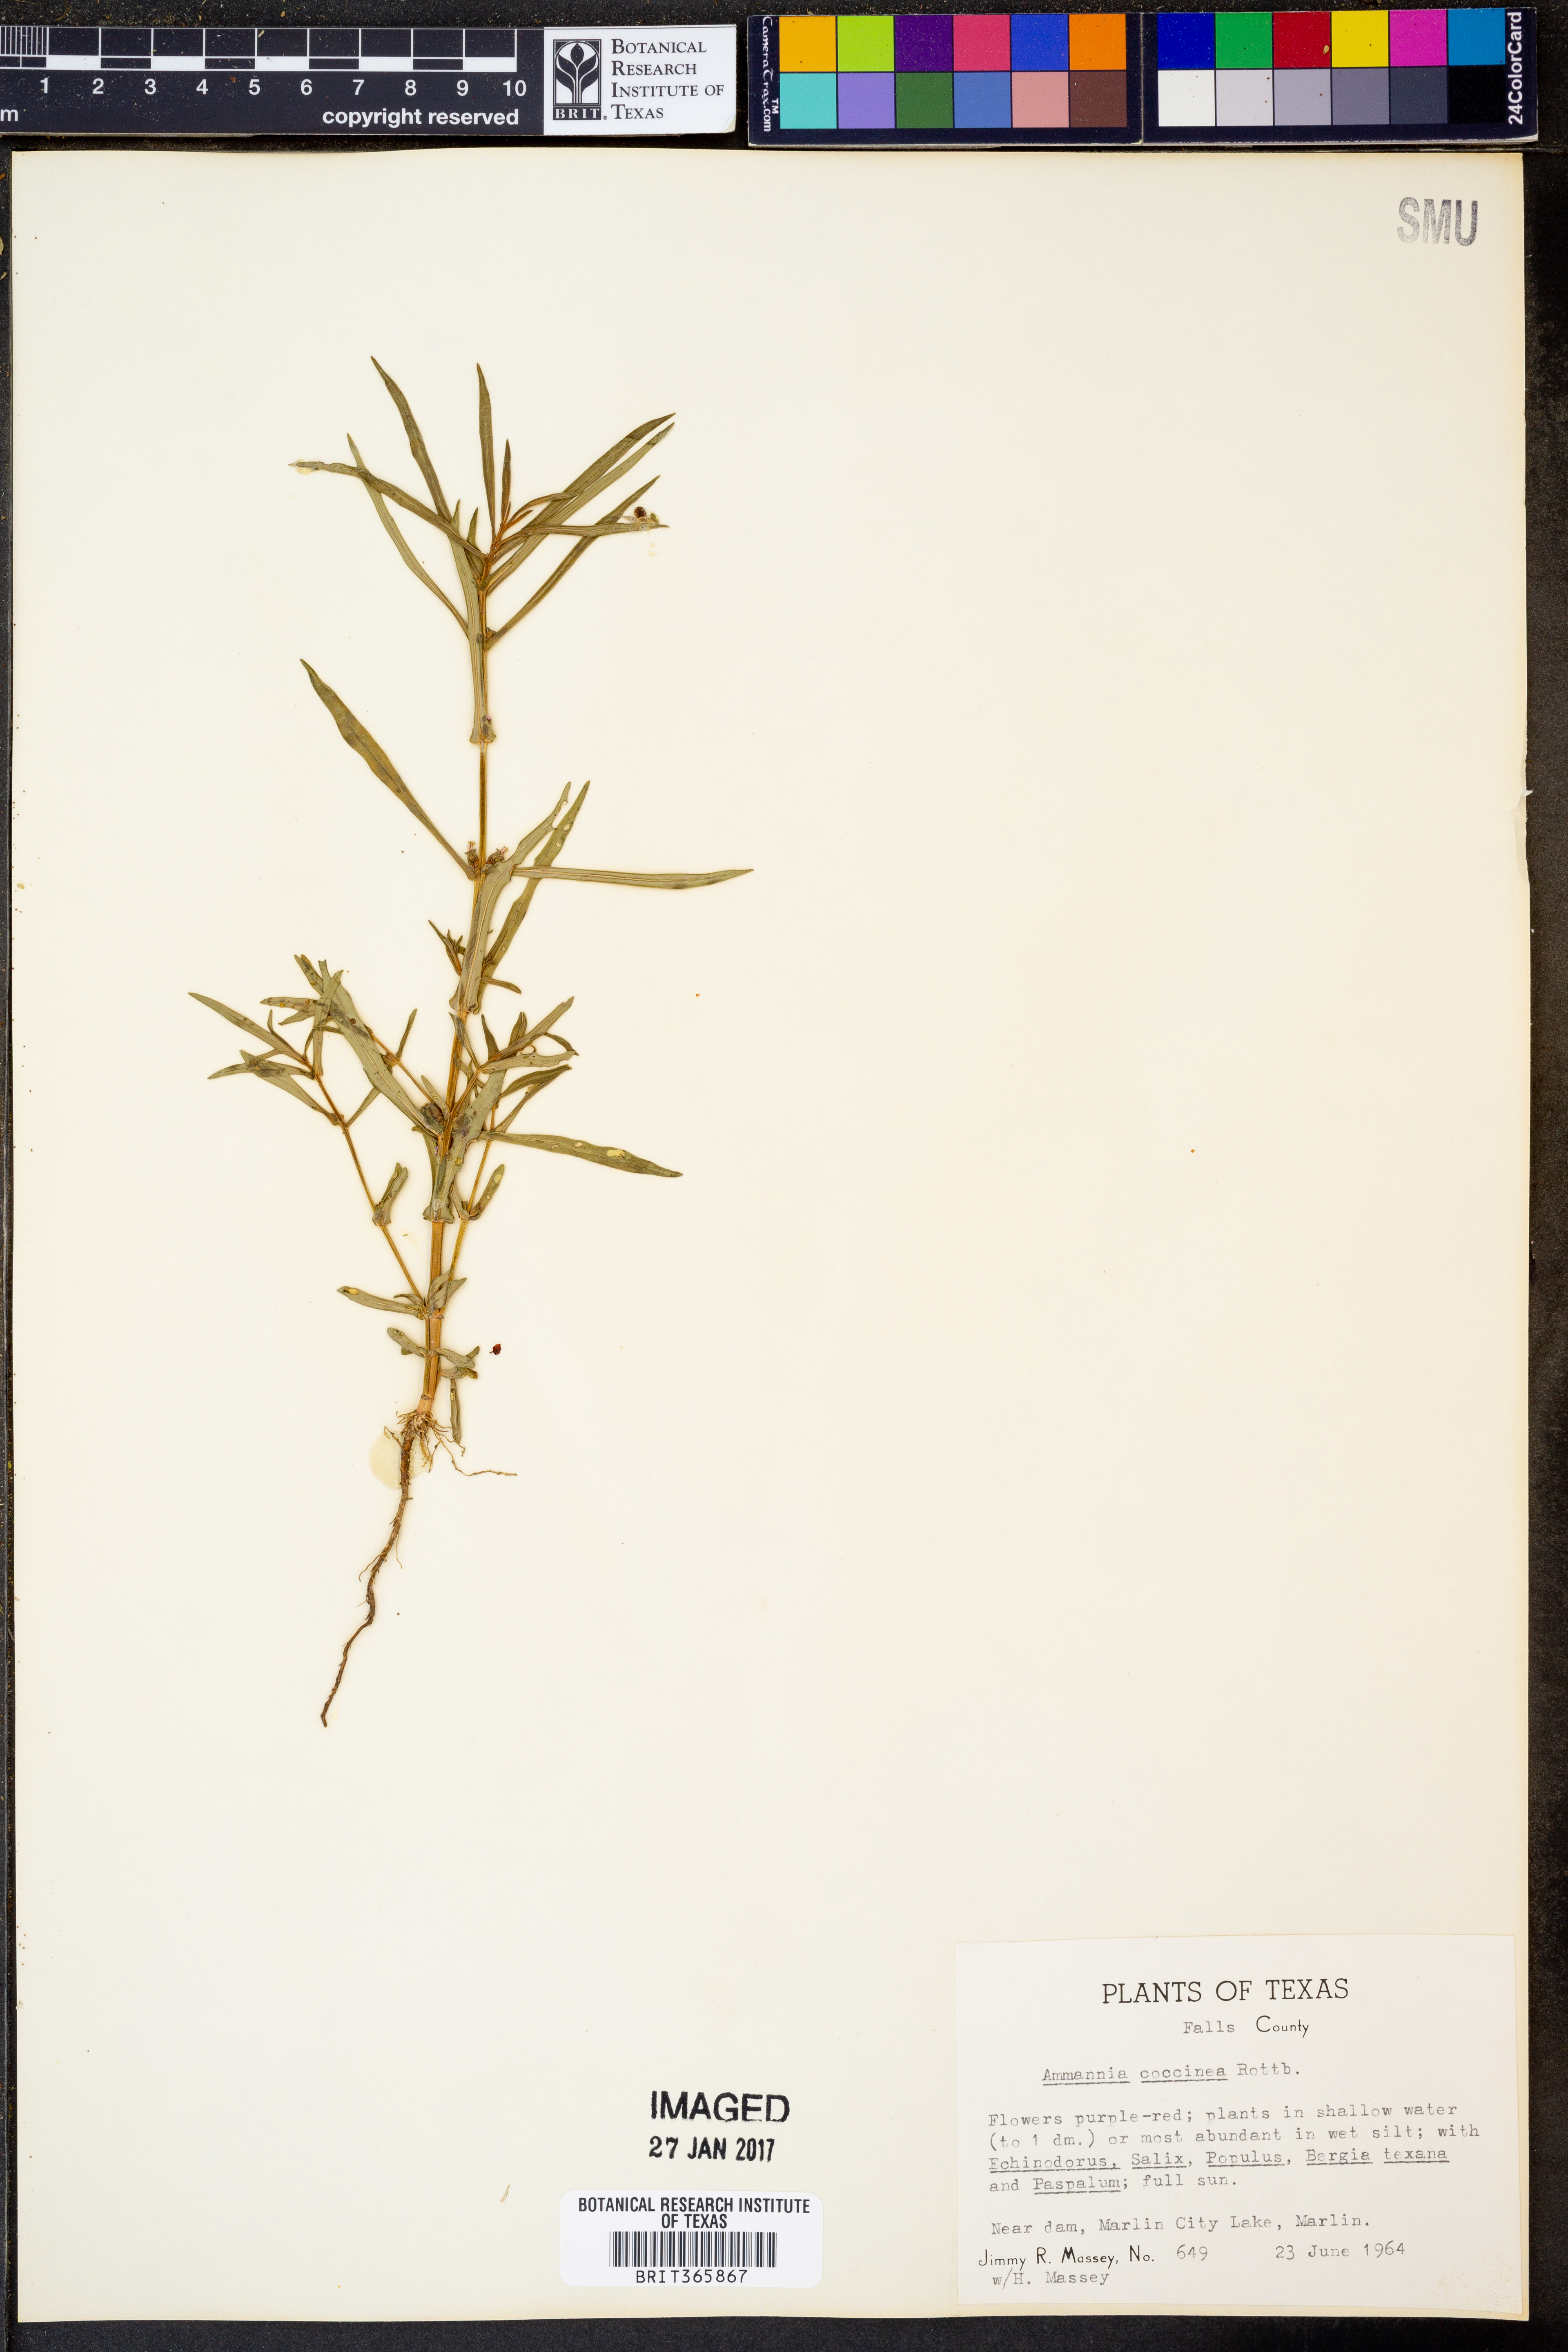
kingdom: Plantae
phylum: Tracheophyta
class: Magnoliopsida
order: Myrtales
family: Lythraceae
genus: Ammannia
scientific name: Ammannia coccinea
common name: Valley redstem
